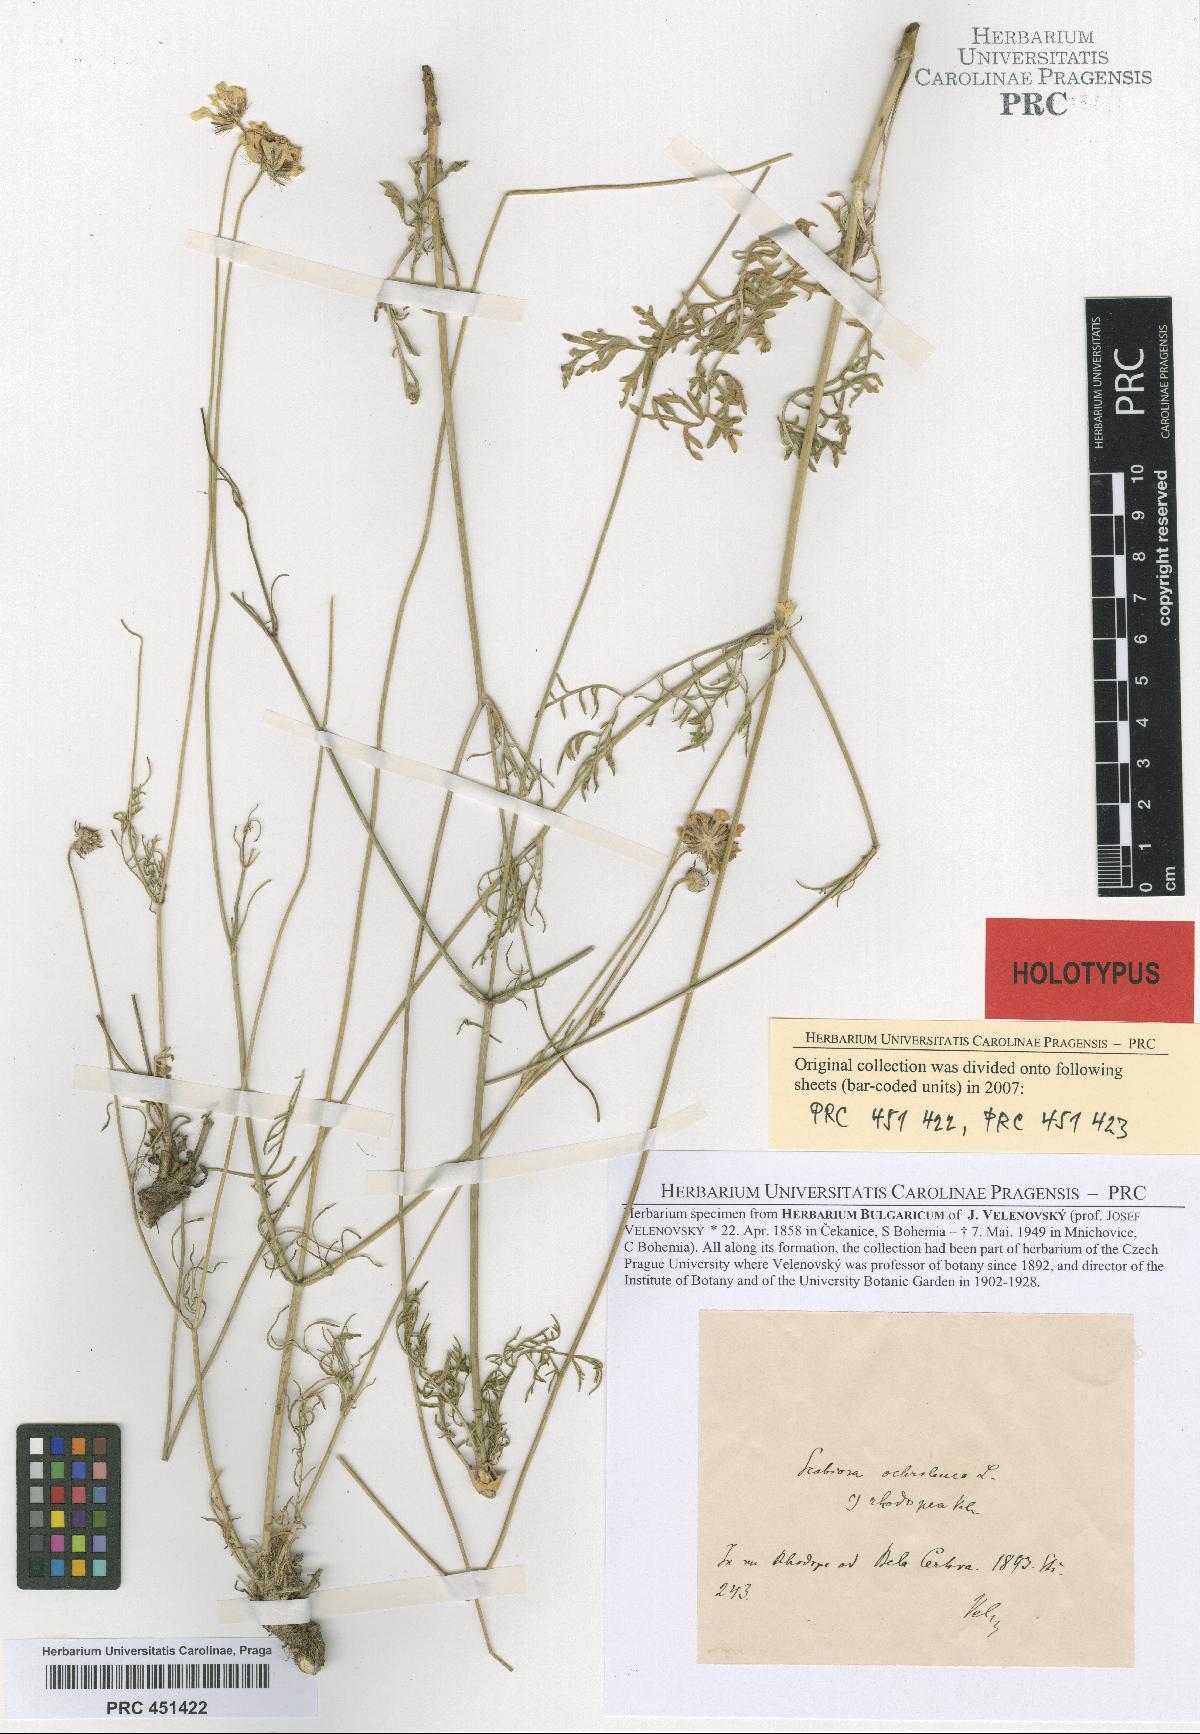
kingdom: Plantae
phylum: Tracheophyta
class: Magnoliopsida
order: Dipsacales
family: Caprifoliaceae
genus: Scabiosa
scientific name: Scabiosa ochroleuca
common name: Cream pincushions
